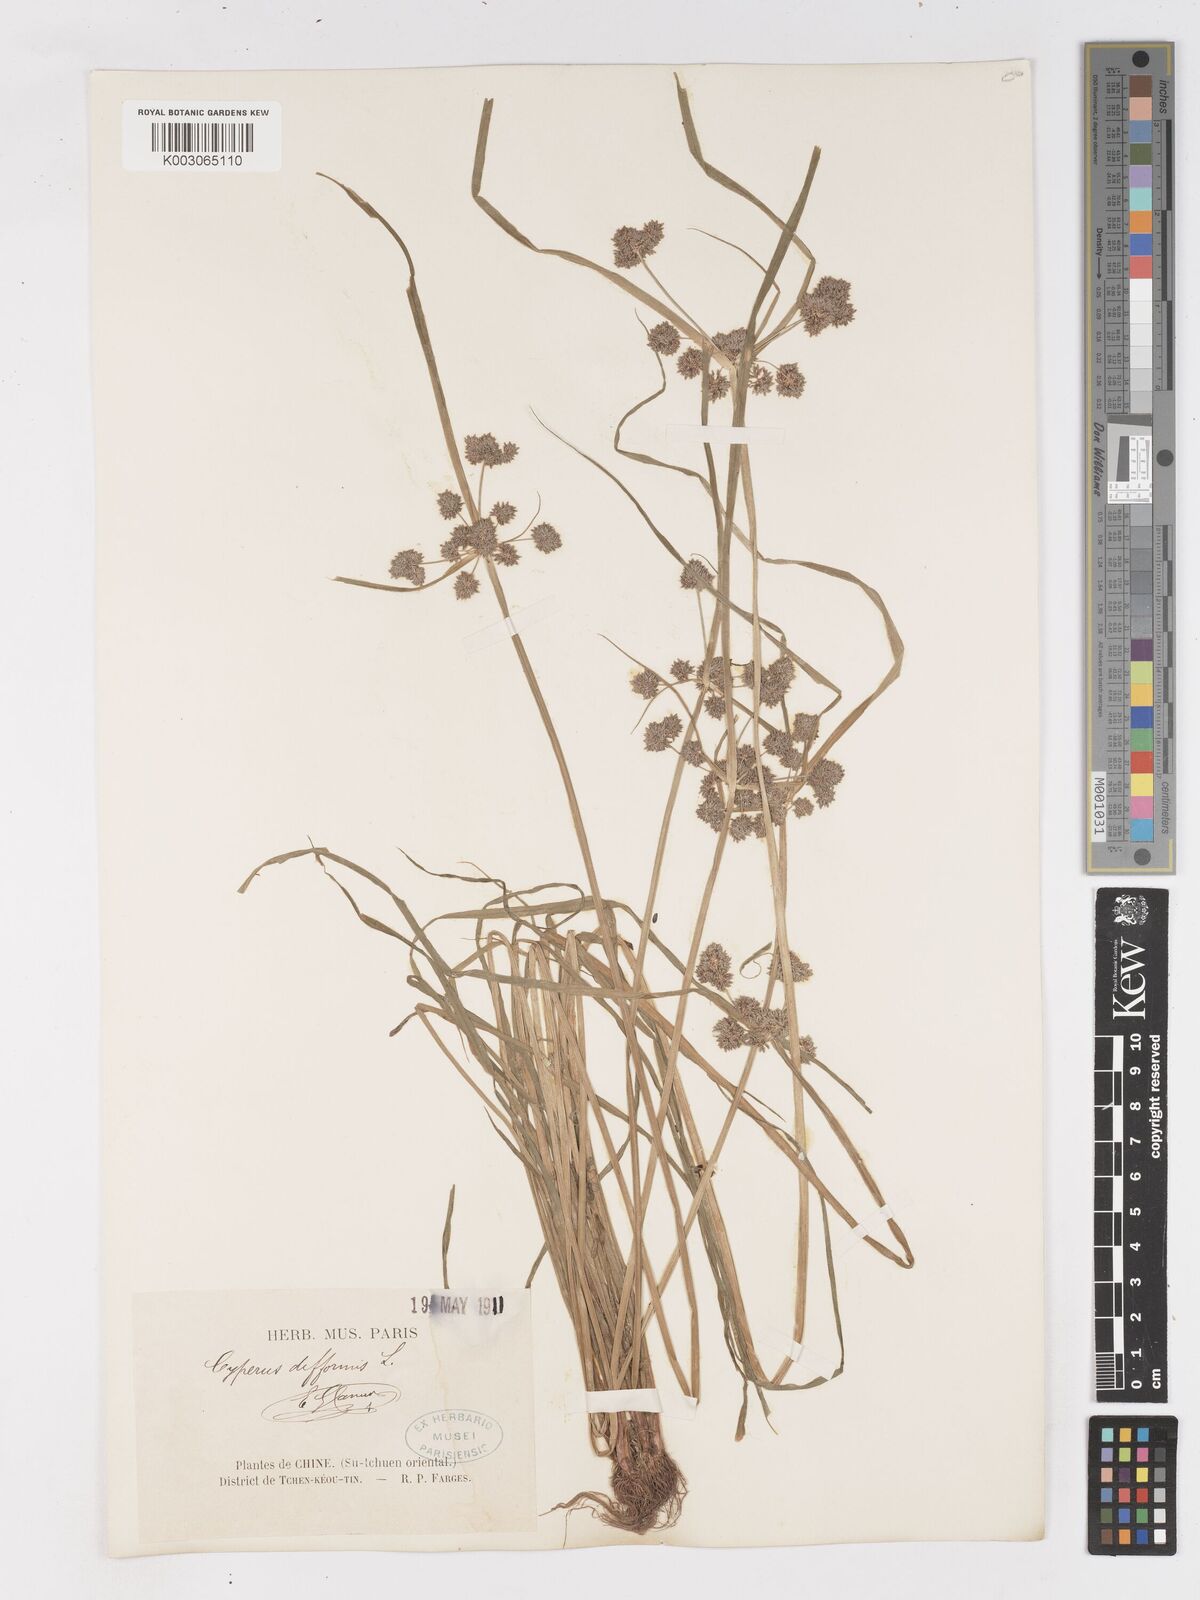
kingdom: Plantae
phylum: Tracheophyta
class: Liliopsida
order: Poales
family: Cyperaceae
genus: Cyperus
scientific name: Cyperus difformis
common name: Variable flatsedge
